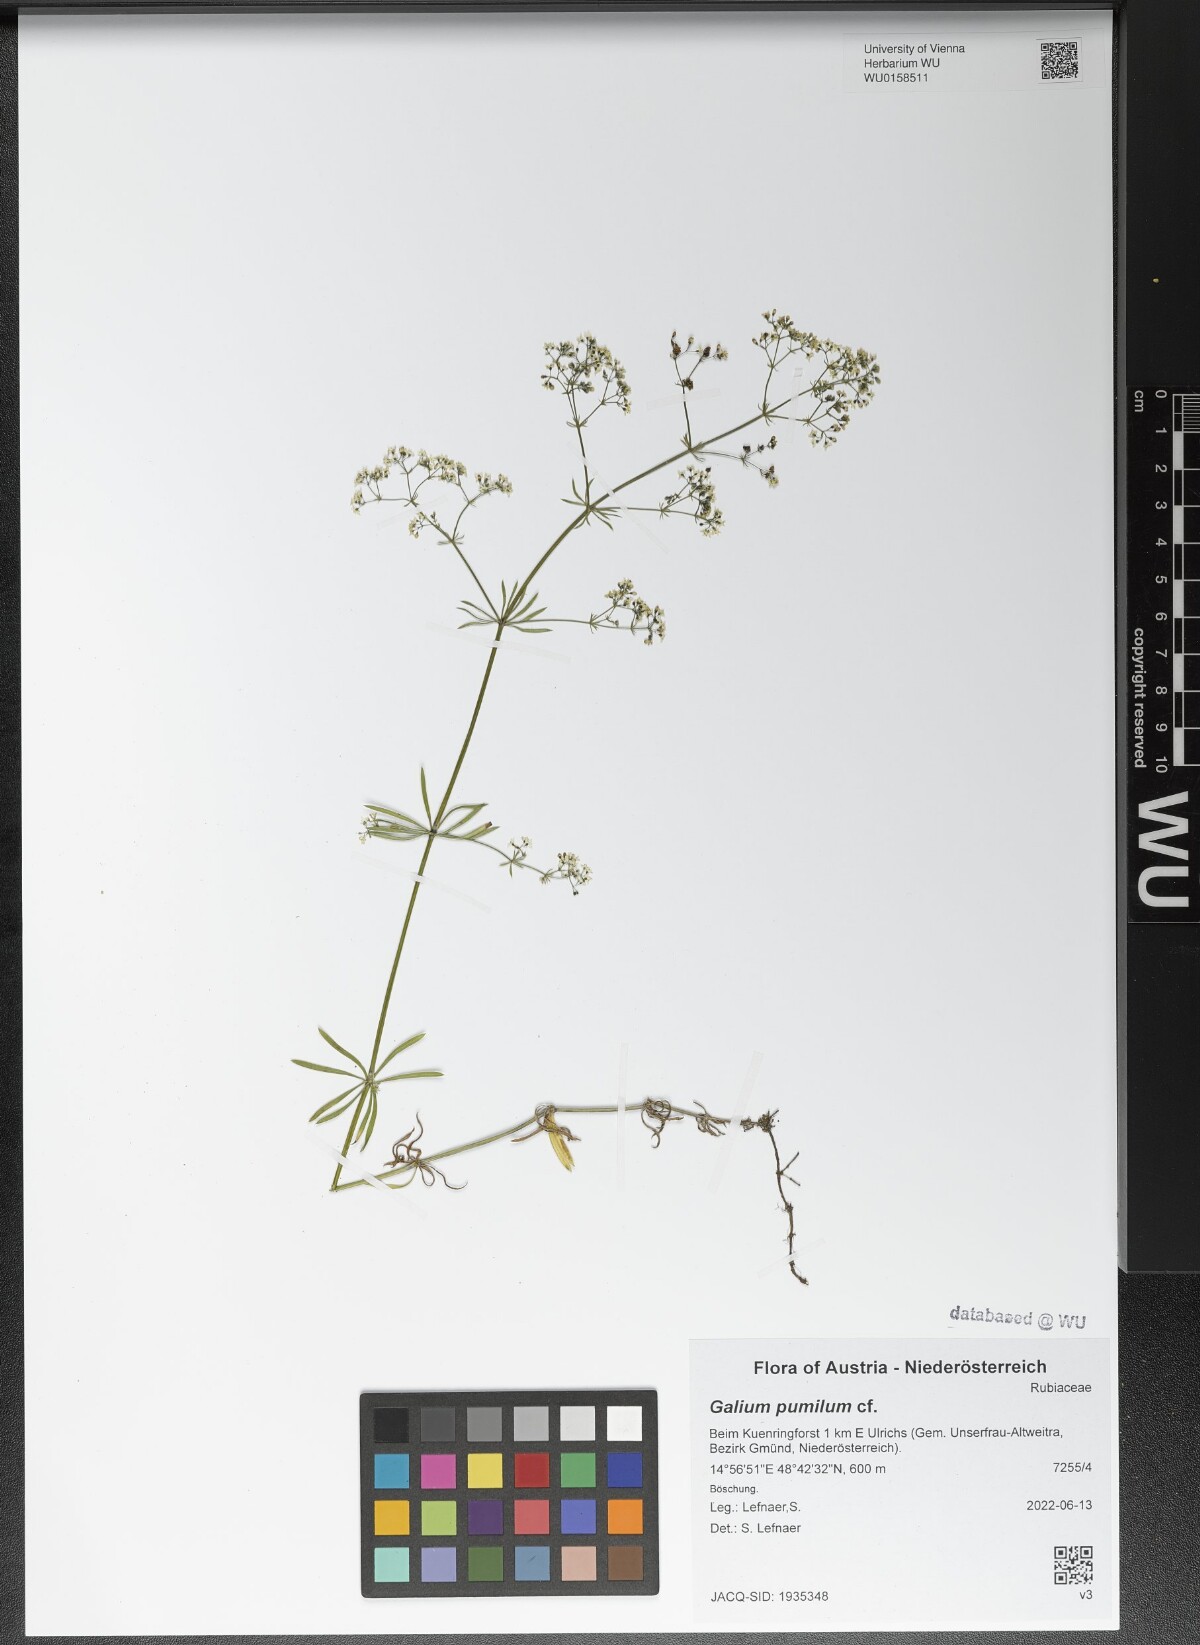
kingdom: Plantae
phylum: Tracheophyta
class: Magnoliopsida
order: Gentianales
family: Rubiaceae
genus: Galium
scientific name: Galium pumilum
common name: Slender bedstraw
